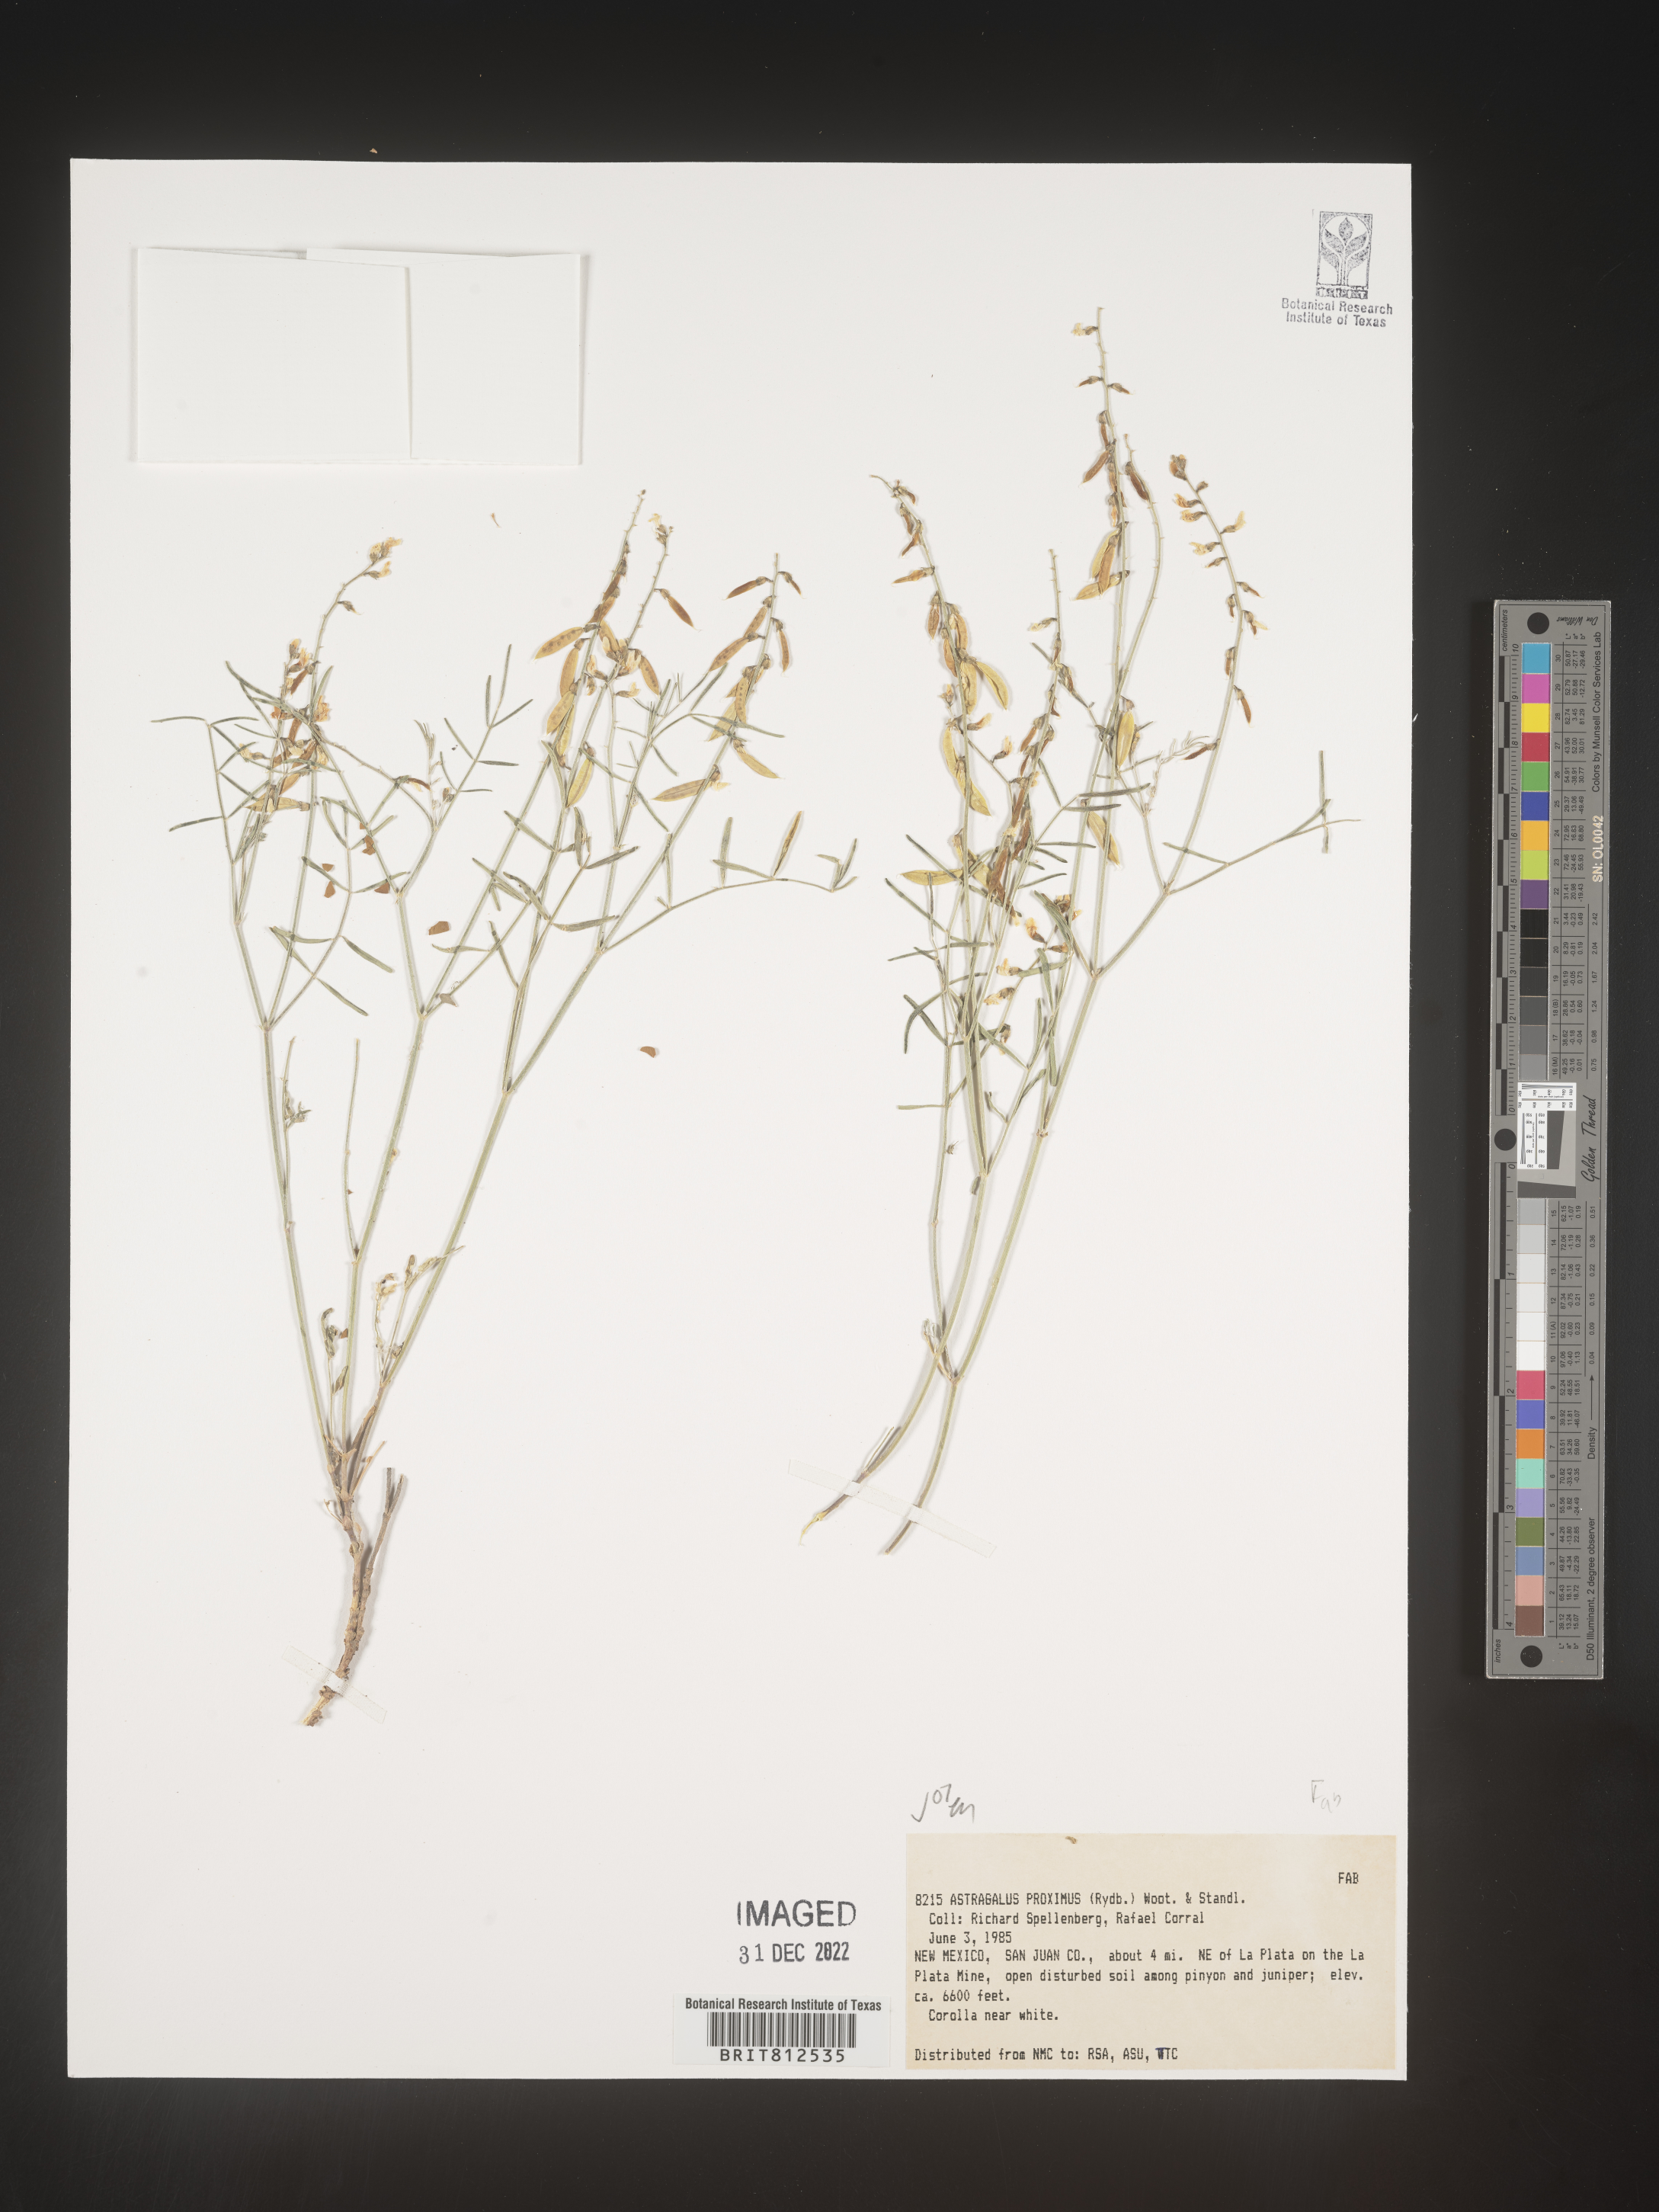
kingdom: Plantae
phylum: Tracheophyta
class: Magnoliopsida
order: Fabales
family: Fabaceae
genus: Astragalus
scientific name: Astragalus
